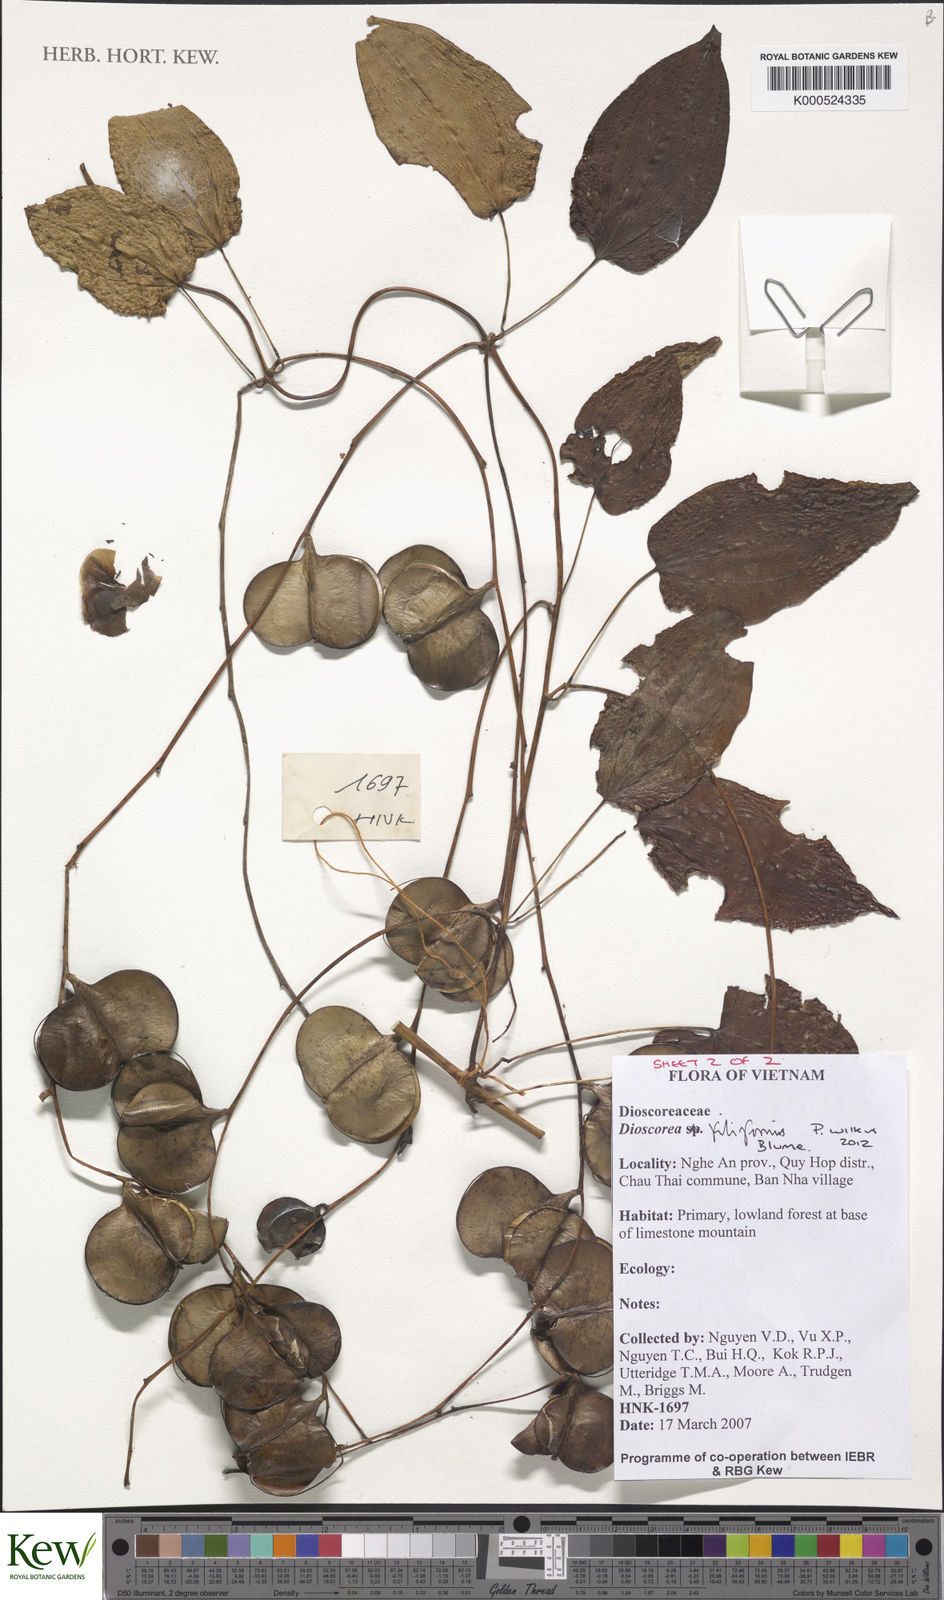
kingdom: Plantae
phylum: Tracheophyta
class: Liliopsida
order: Dioscoreales
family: Dioscoreaceae
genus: Dioscorea
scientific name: Dioscorea filiformis
